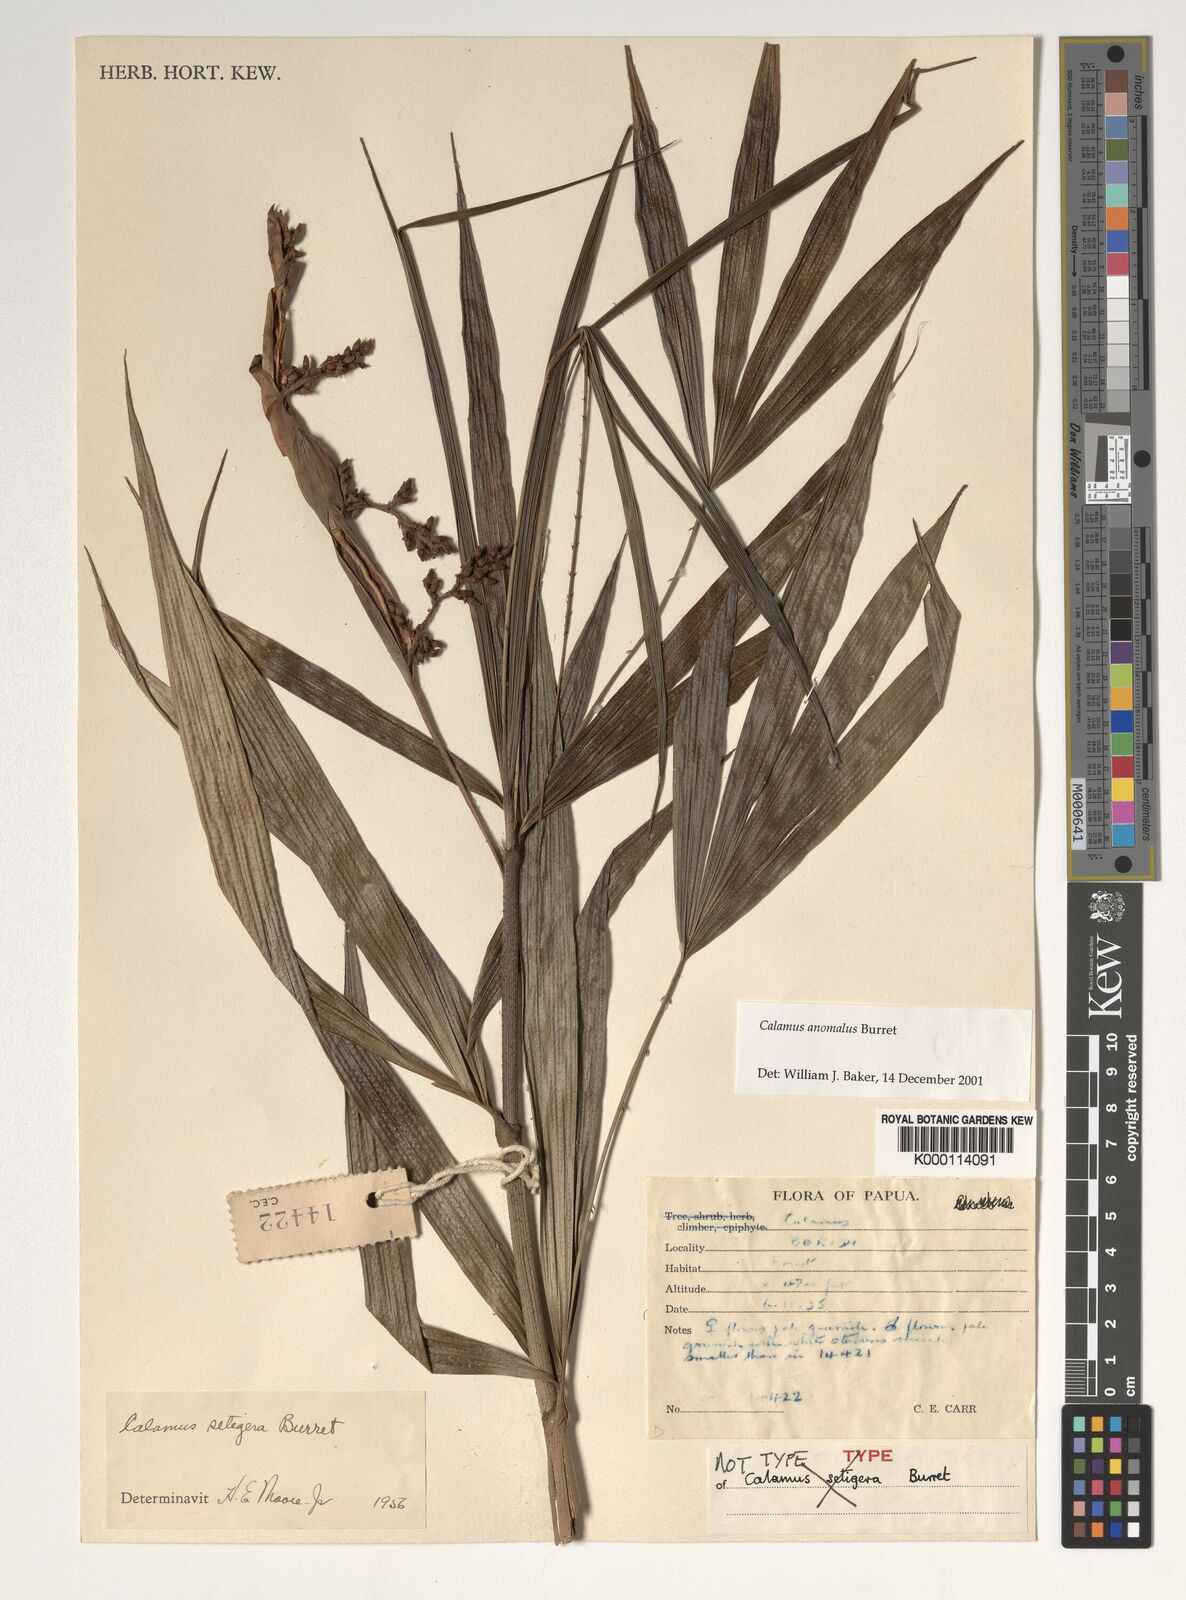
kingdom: Plantae
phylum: Tracheophyta
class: Liliopsida
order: Arecales
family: Arecaceae
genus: Calamus
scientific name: Calamus anomalus
